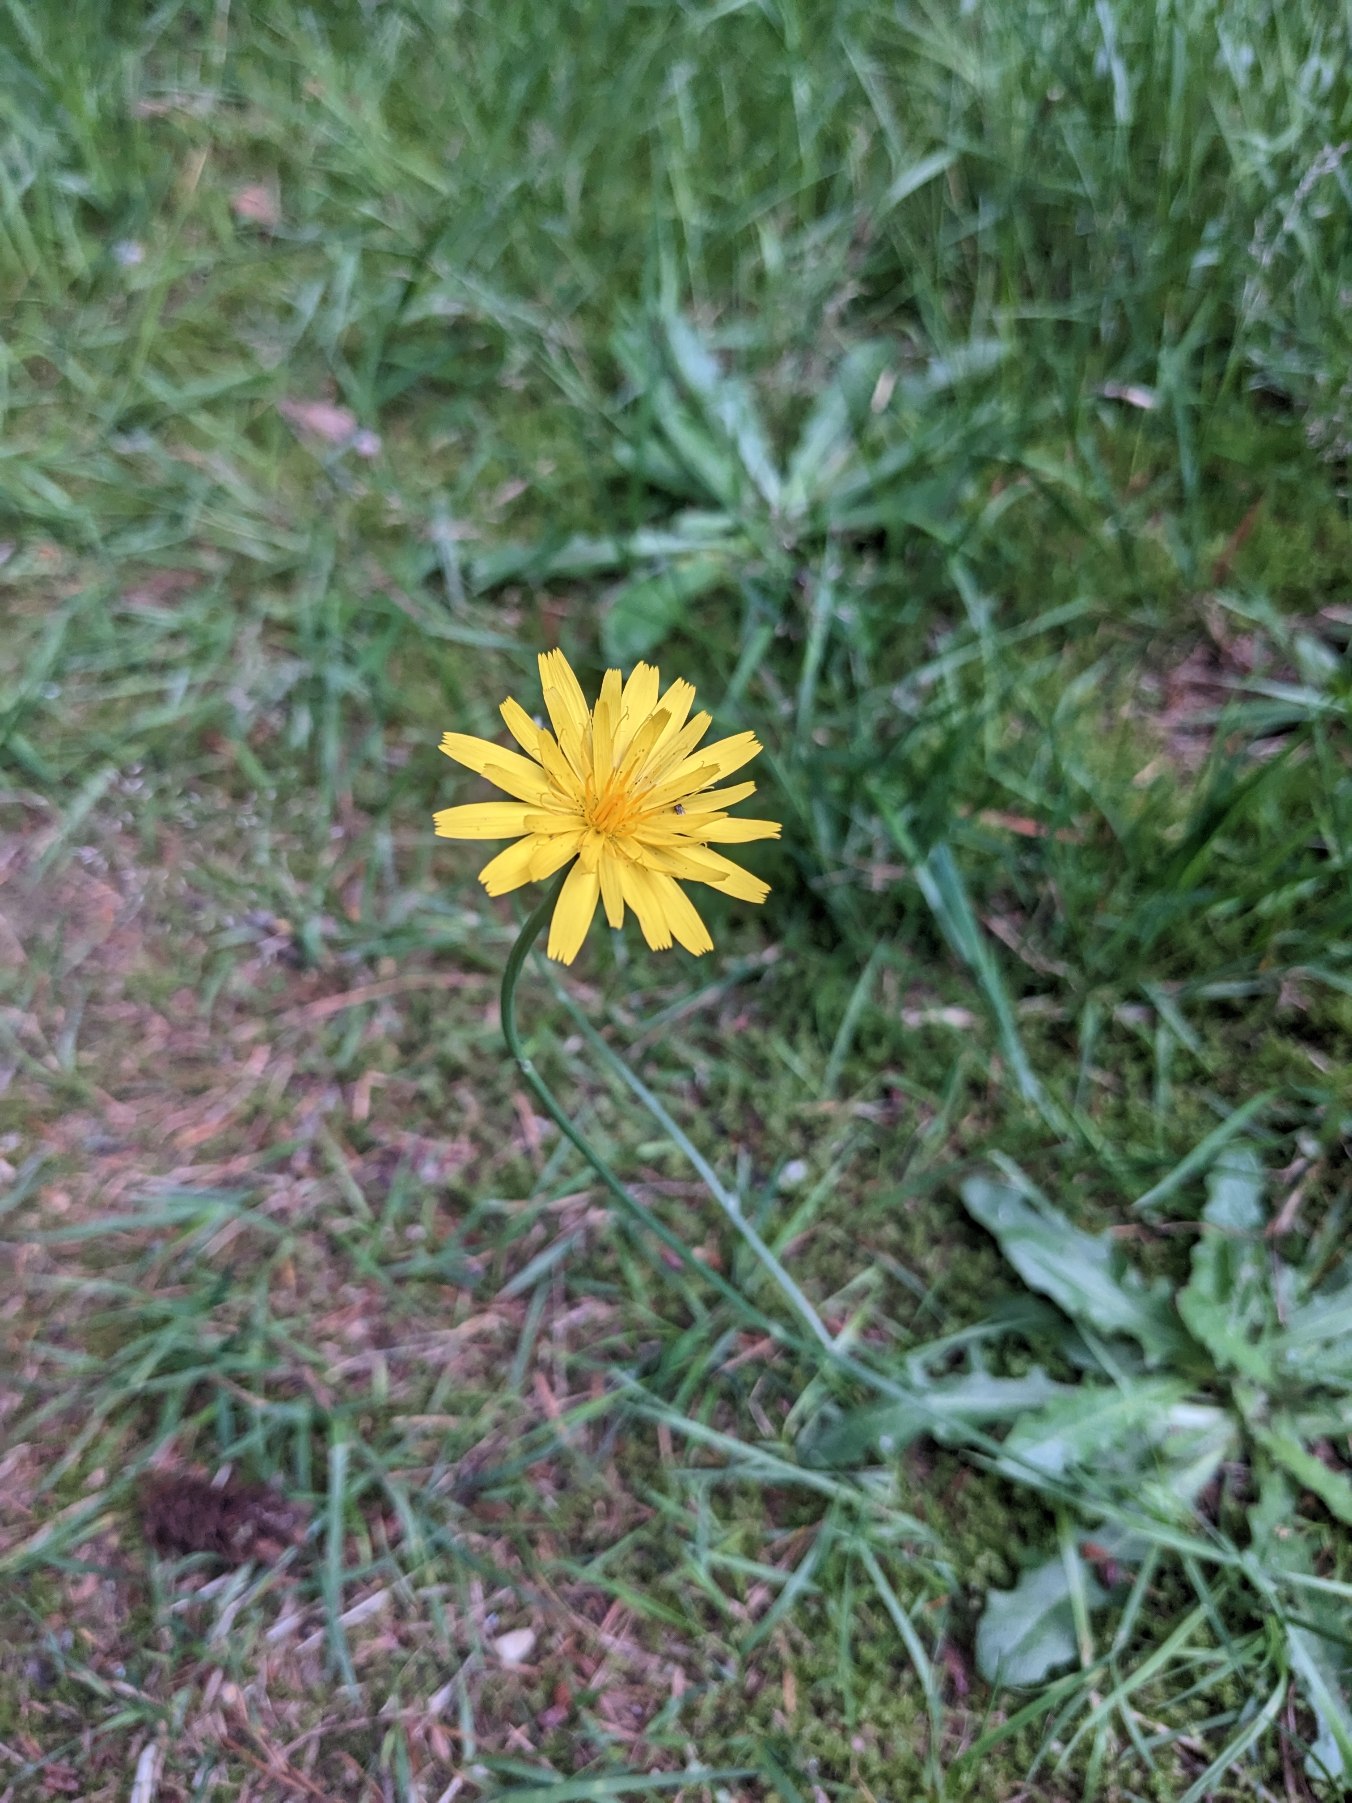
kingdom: Plantae
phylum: Tracheophyta
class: Magnoliopsida
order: Asterales
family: Asteraceae
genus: Hypochaeris
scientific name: Hypochaeris radicata
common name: Almindelig kongepen
